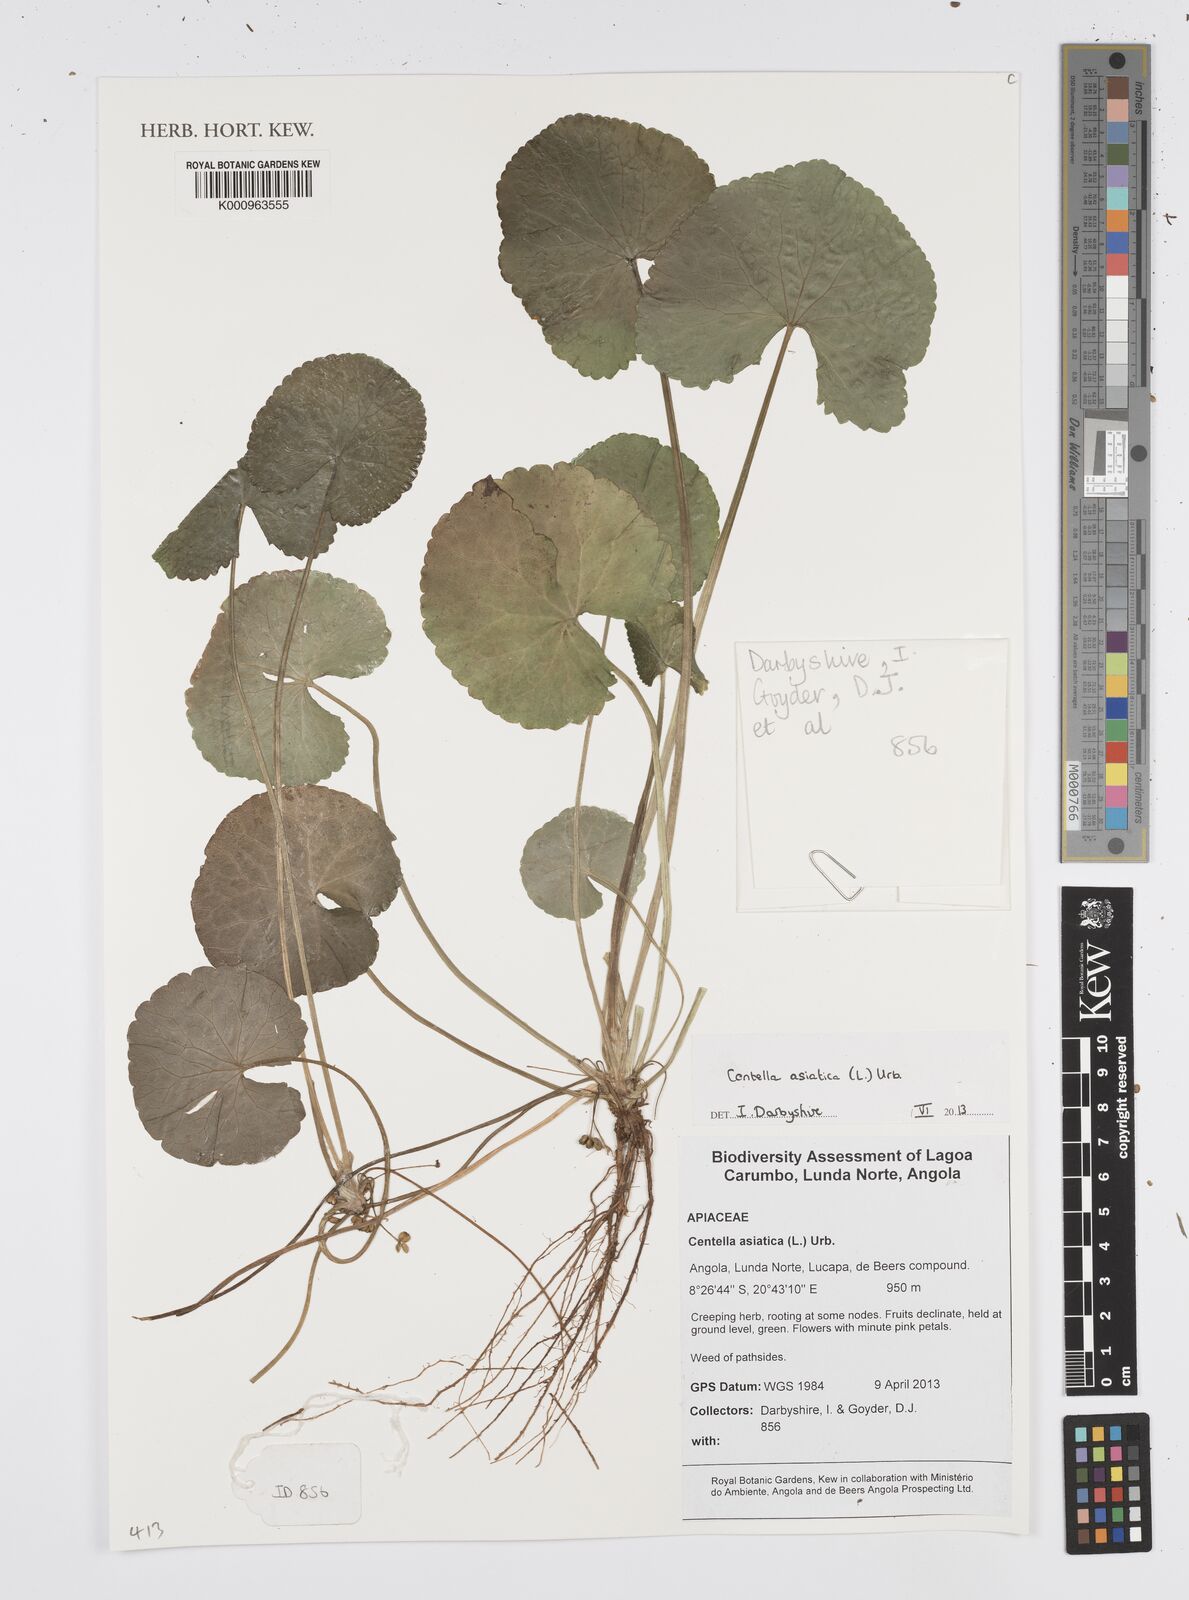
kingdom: Plantae
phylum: Tracheophyta
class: Magnoliopsida
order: Apiales
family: Apiaceae
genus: Centella
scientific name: Centella asiatica
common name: Spadeleaf
